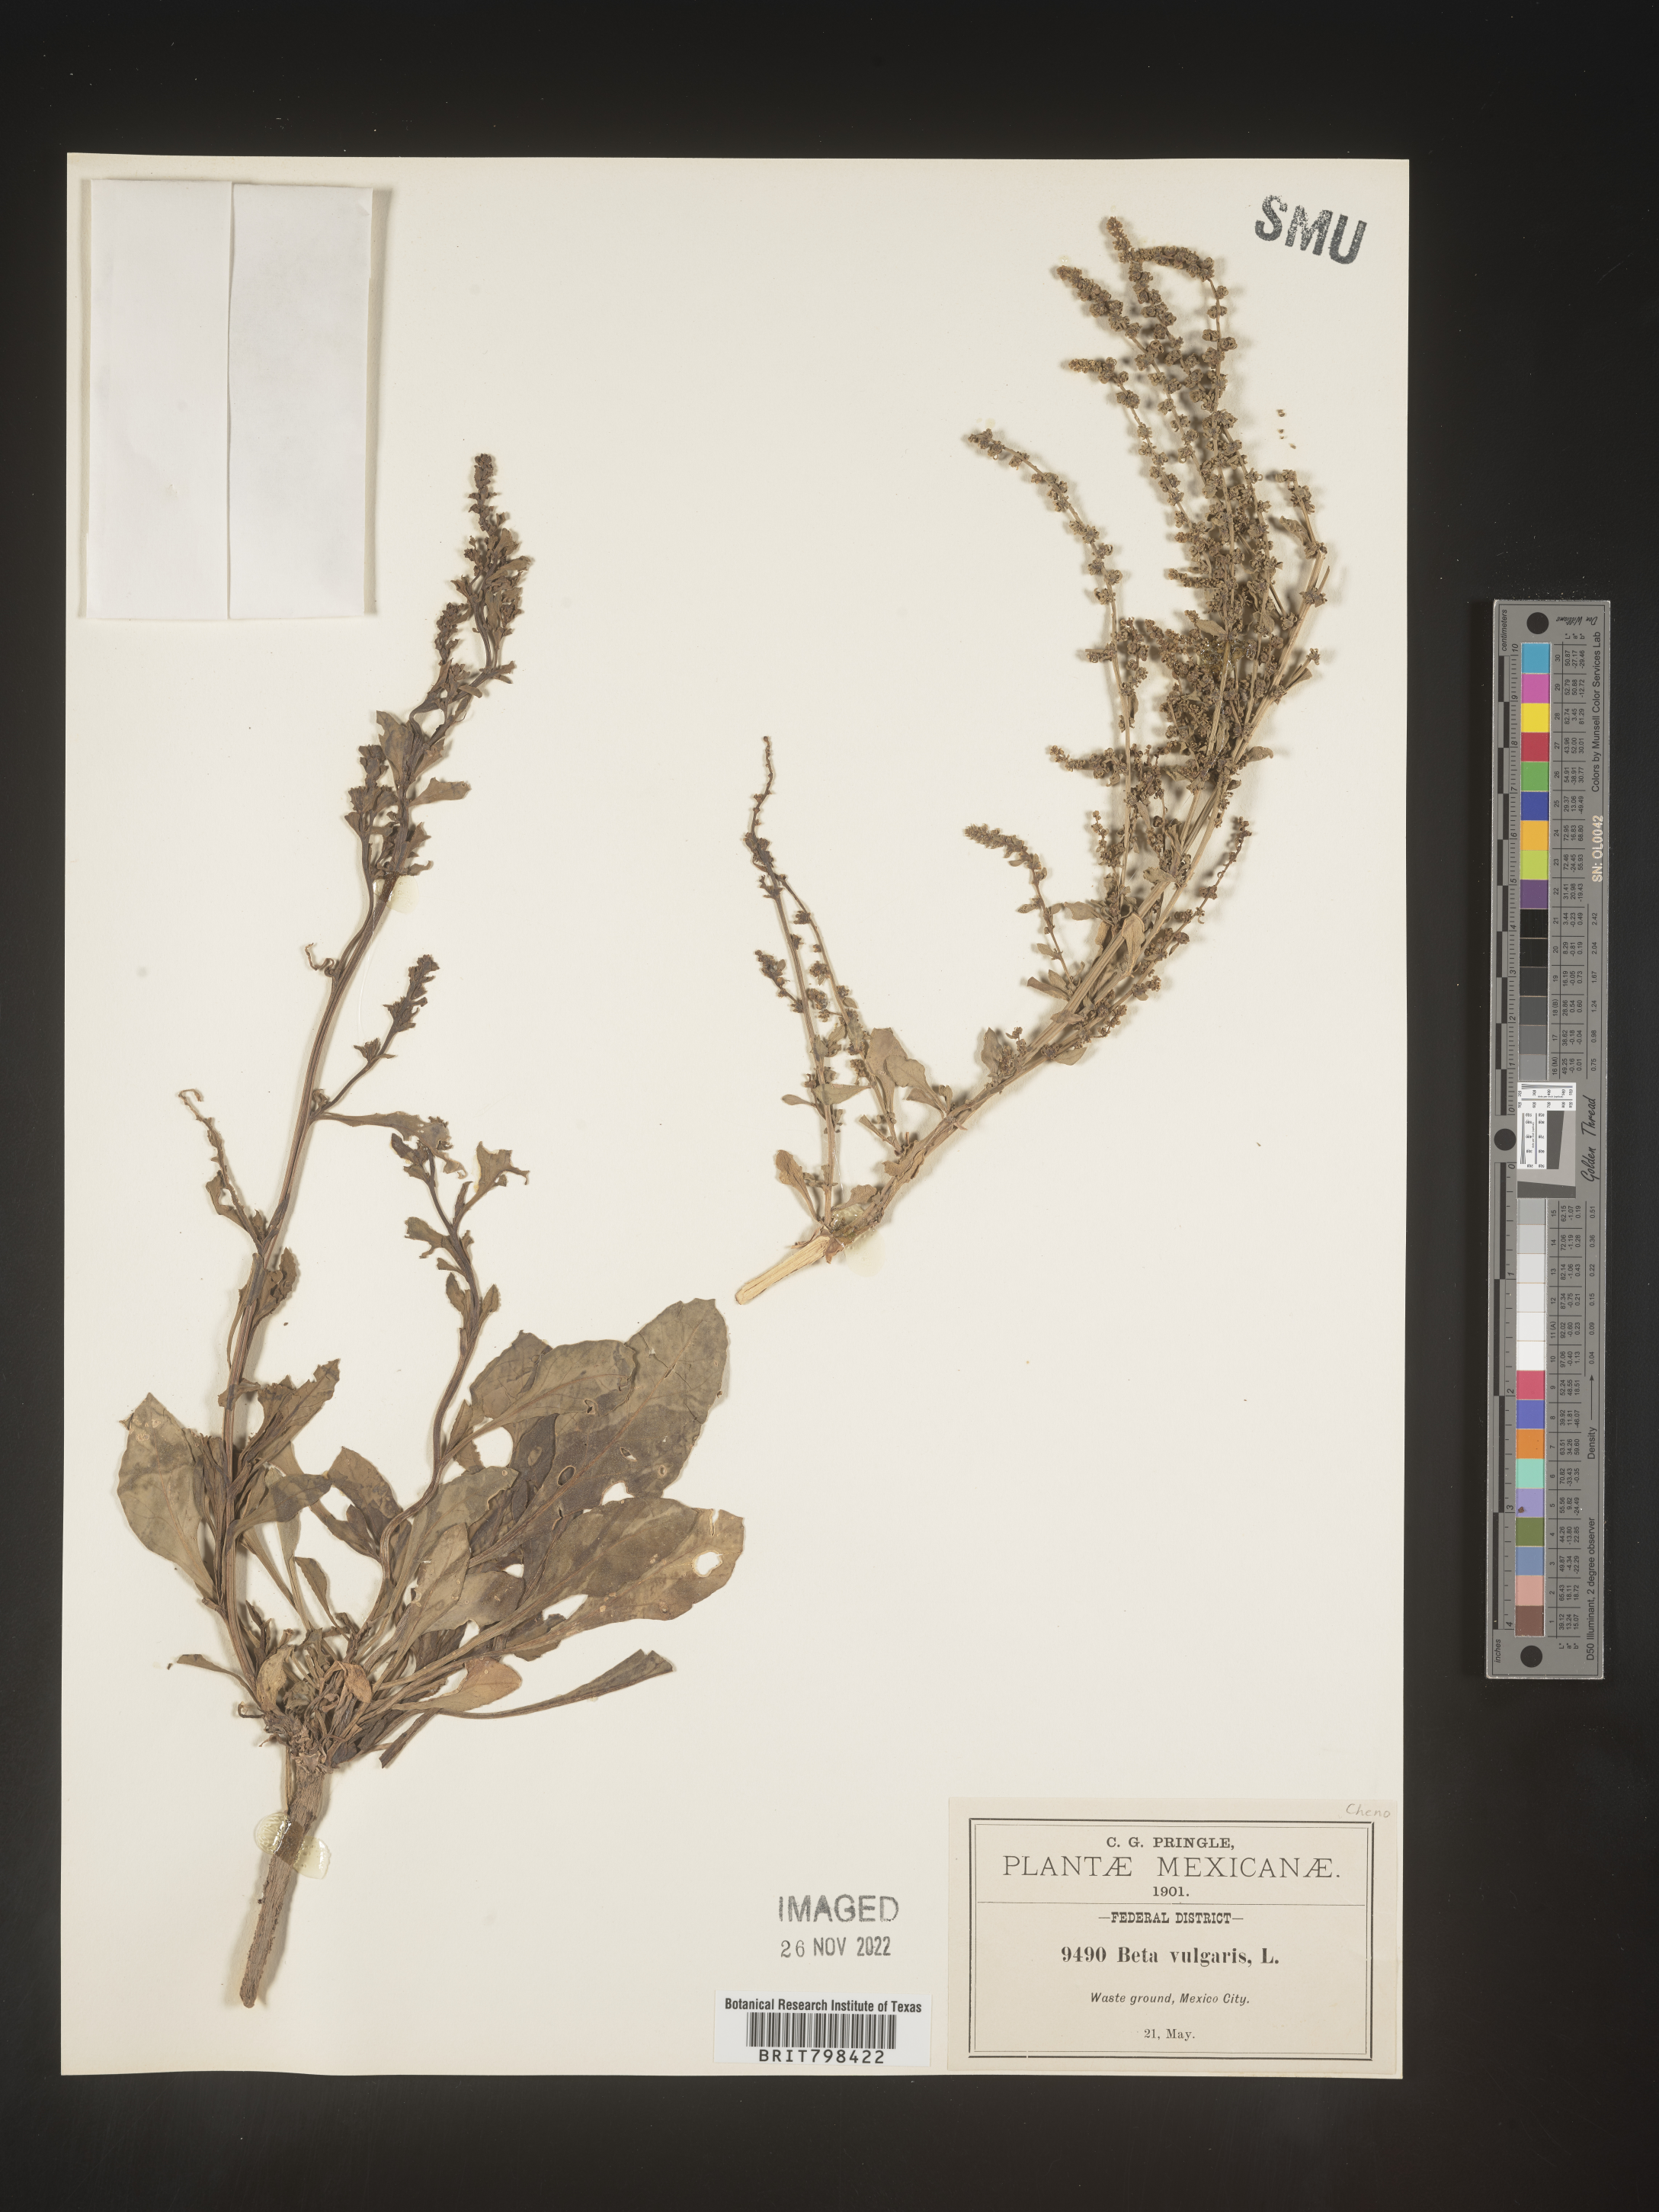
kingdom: Plantae
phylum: Tracheophyta
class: Magnoliopsida
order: Caryophyllales
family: Amaranthaceae
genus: Beta
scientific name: Beta vulgaris
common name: Beet
